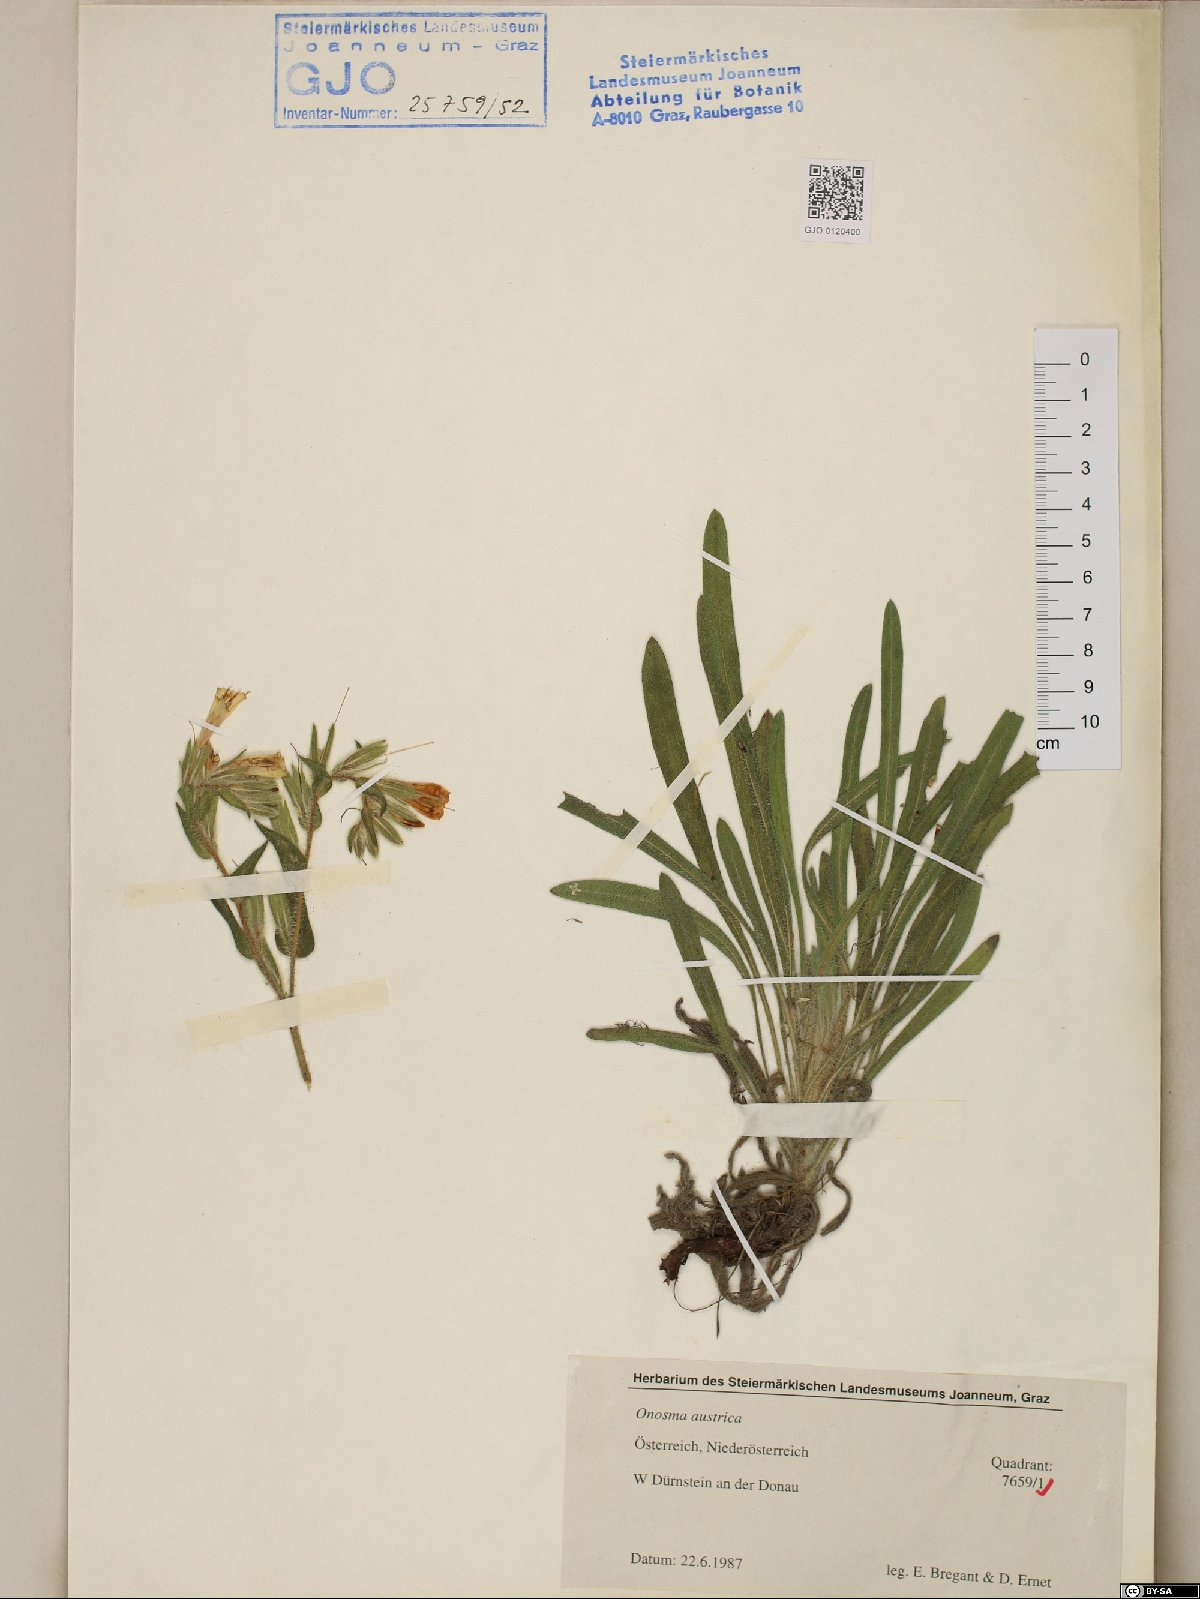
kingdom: Plantae
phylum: Tracheophyta
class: Magnoliopsida
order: Boraginales
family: Boraginaceae
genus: Onosma
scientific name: Onosma arenaria
